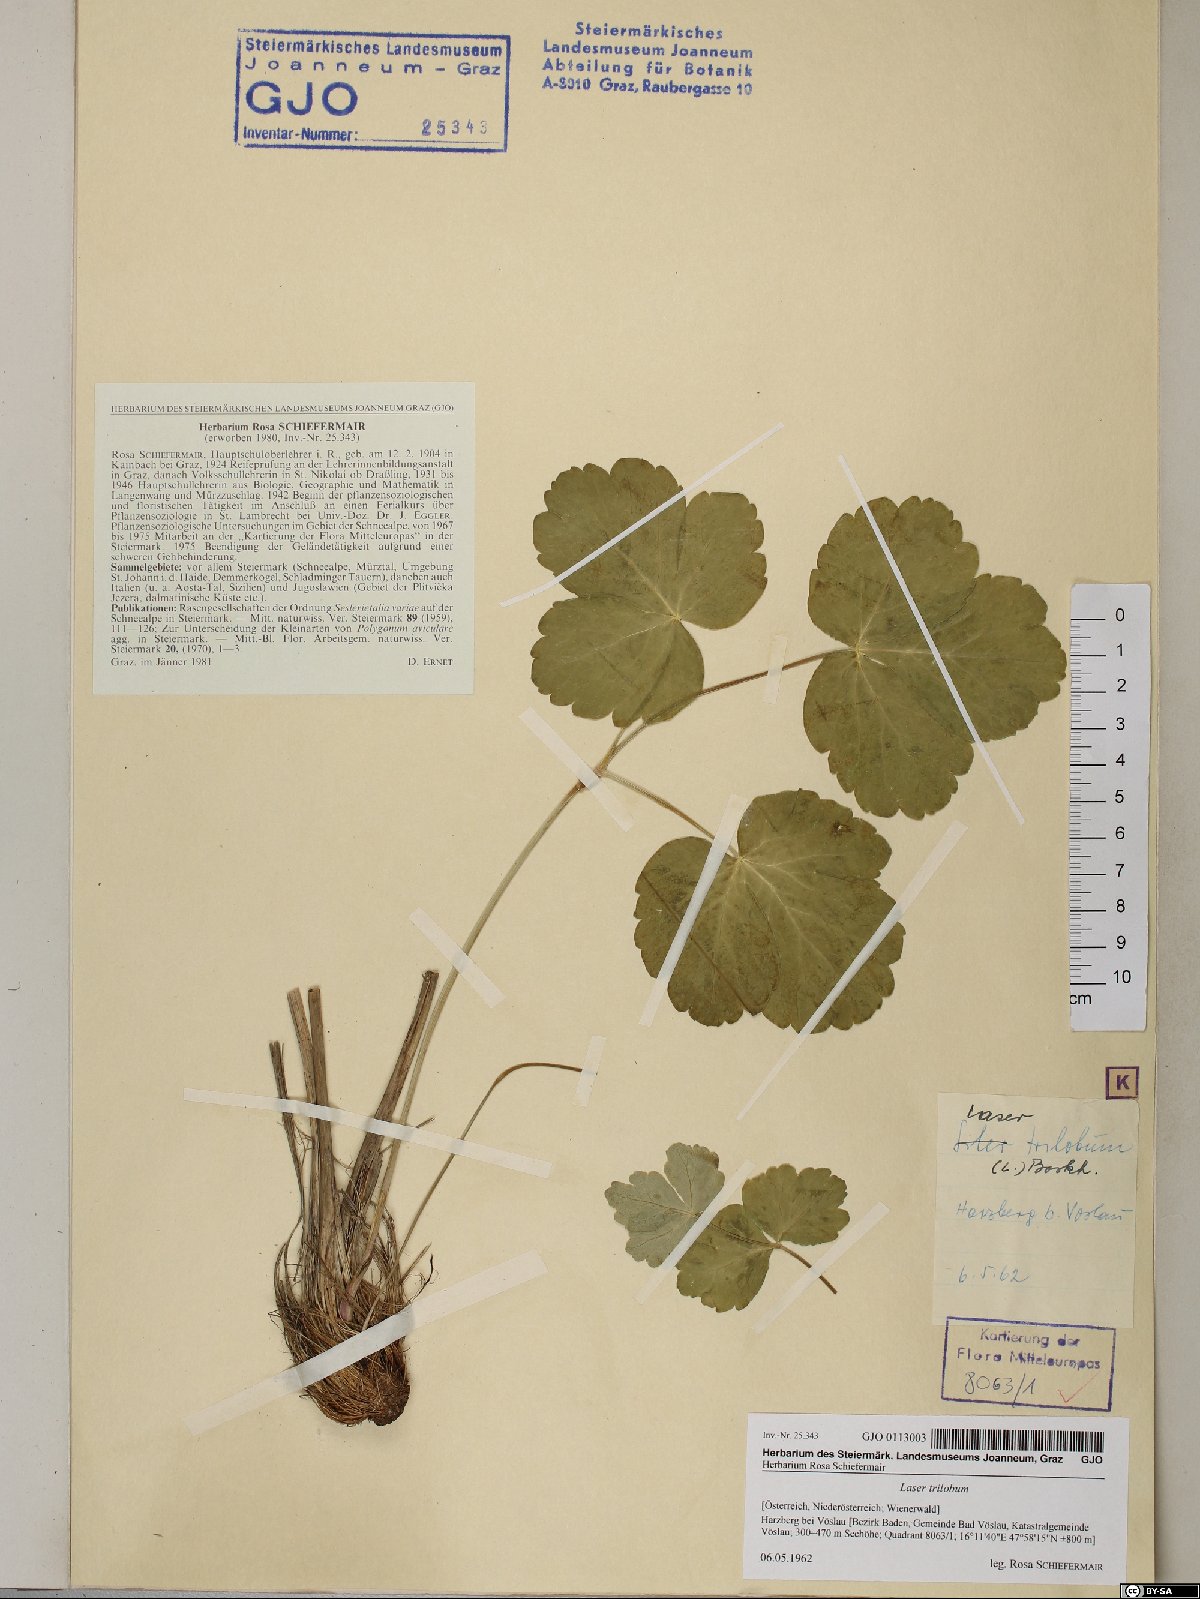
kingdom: Plantae
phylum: Tracheophyta
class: Magnoliopsida
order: Apiales
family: Apiaceae
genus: Laser
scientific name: Laser trilobum
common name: Laser
